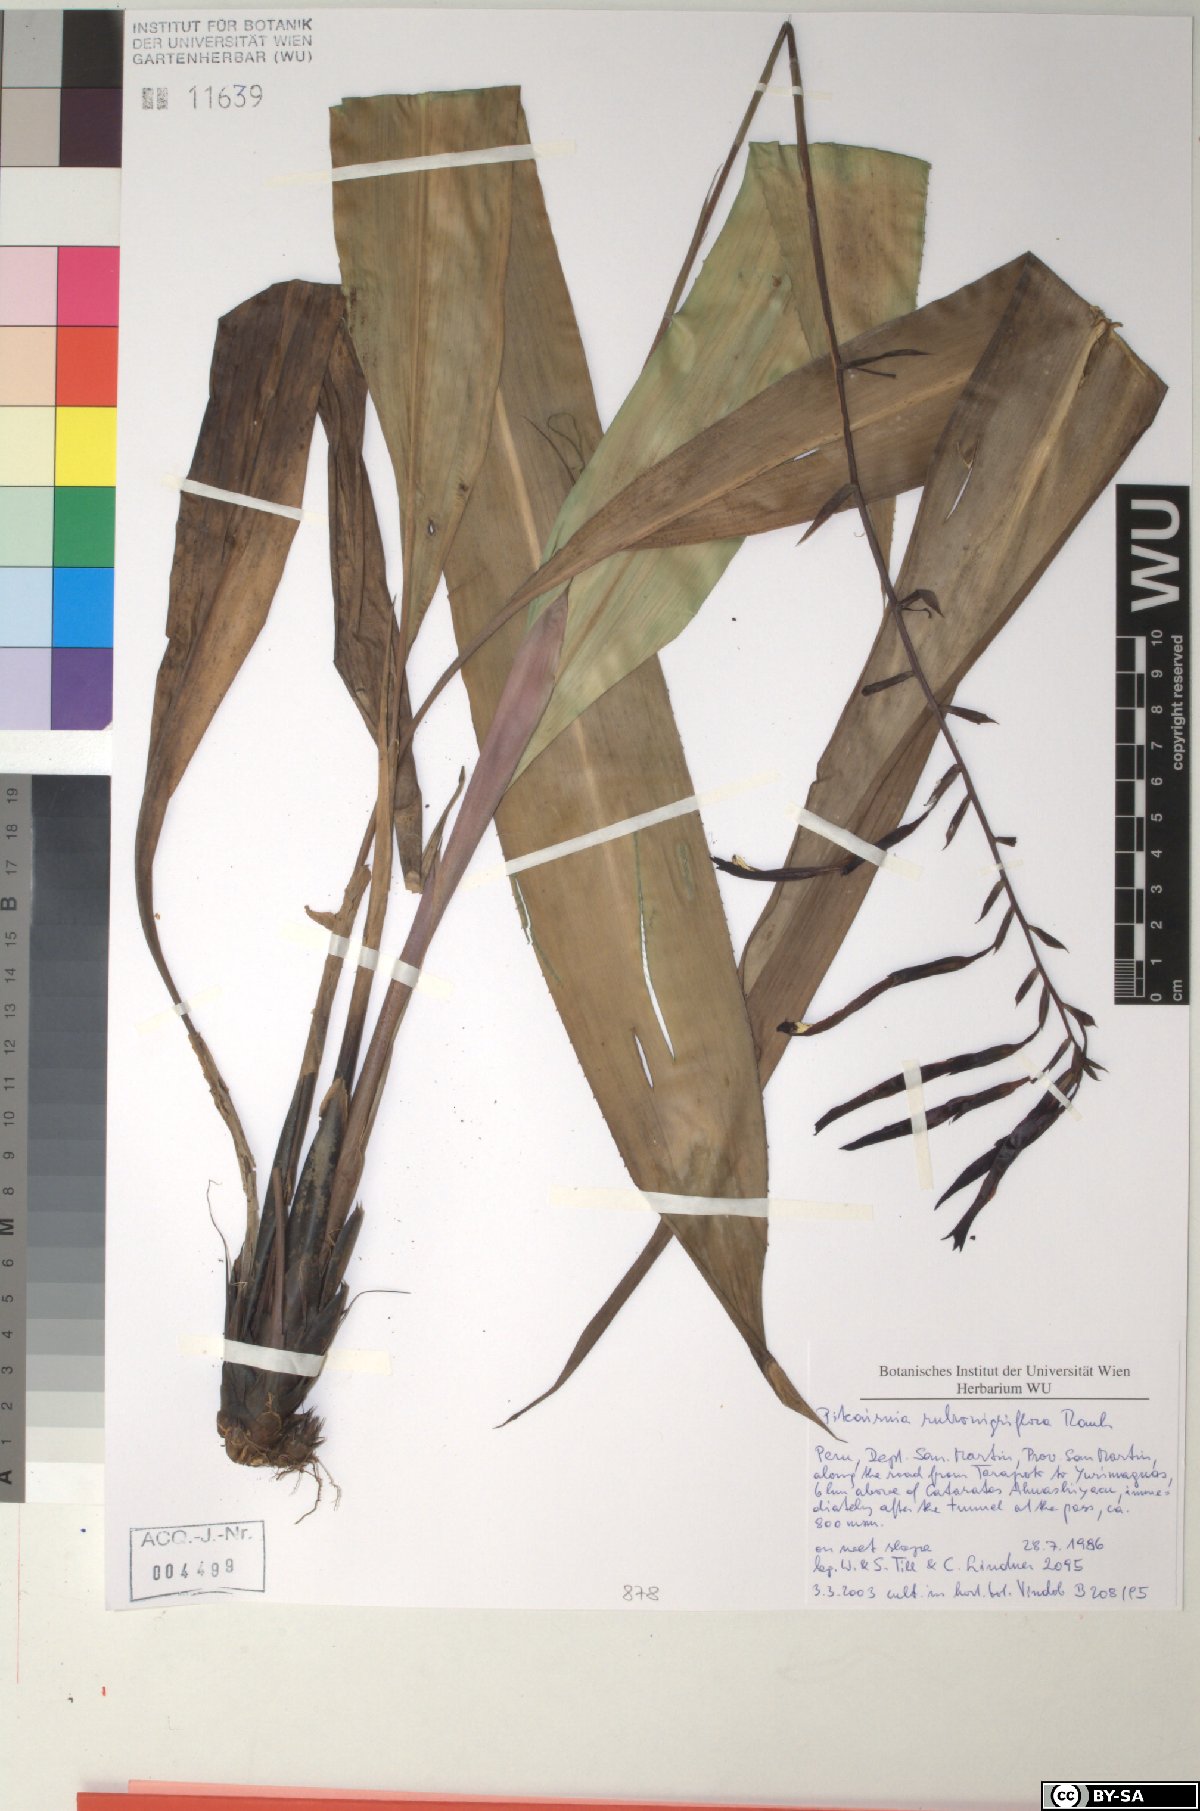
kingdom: Plantae
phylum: Tracheophyta
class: Liliopsida
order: Poales
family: Bromeliaceae
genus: Pitcairnia
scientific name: Pitcairnia rubronigriflora
